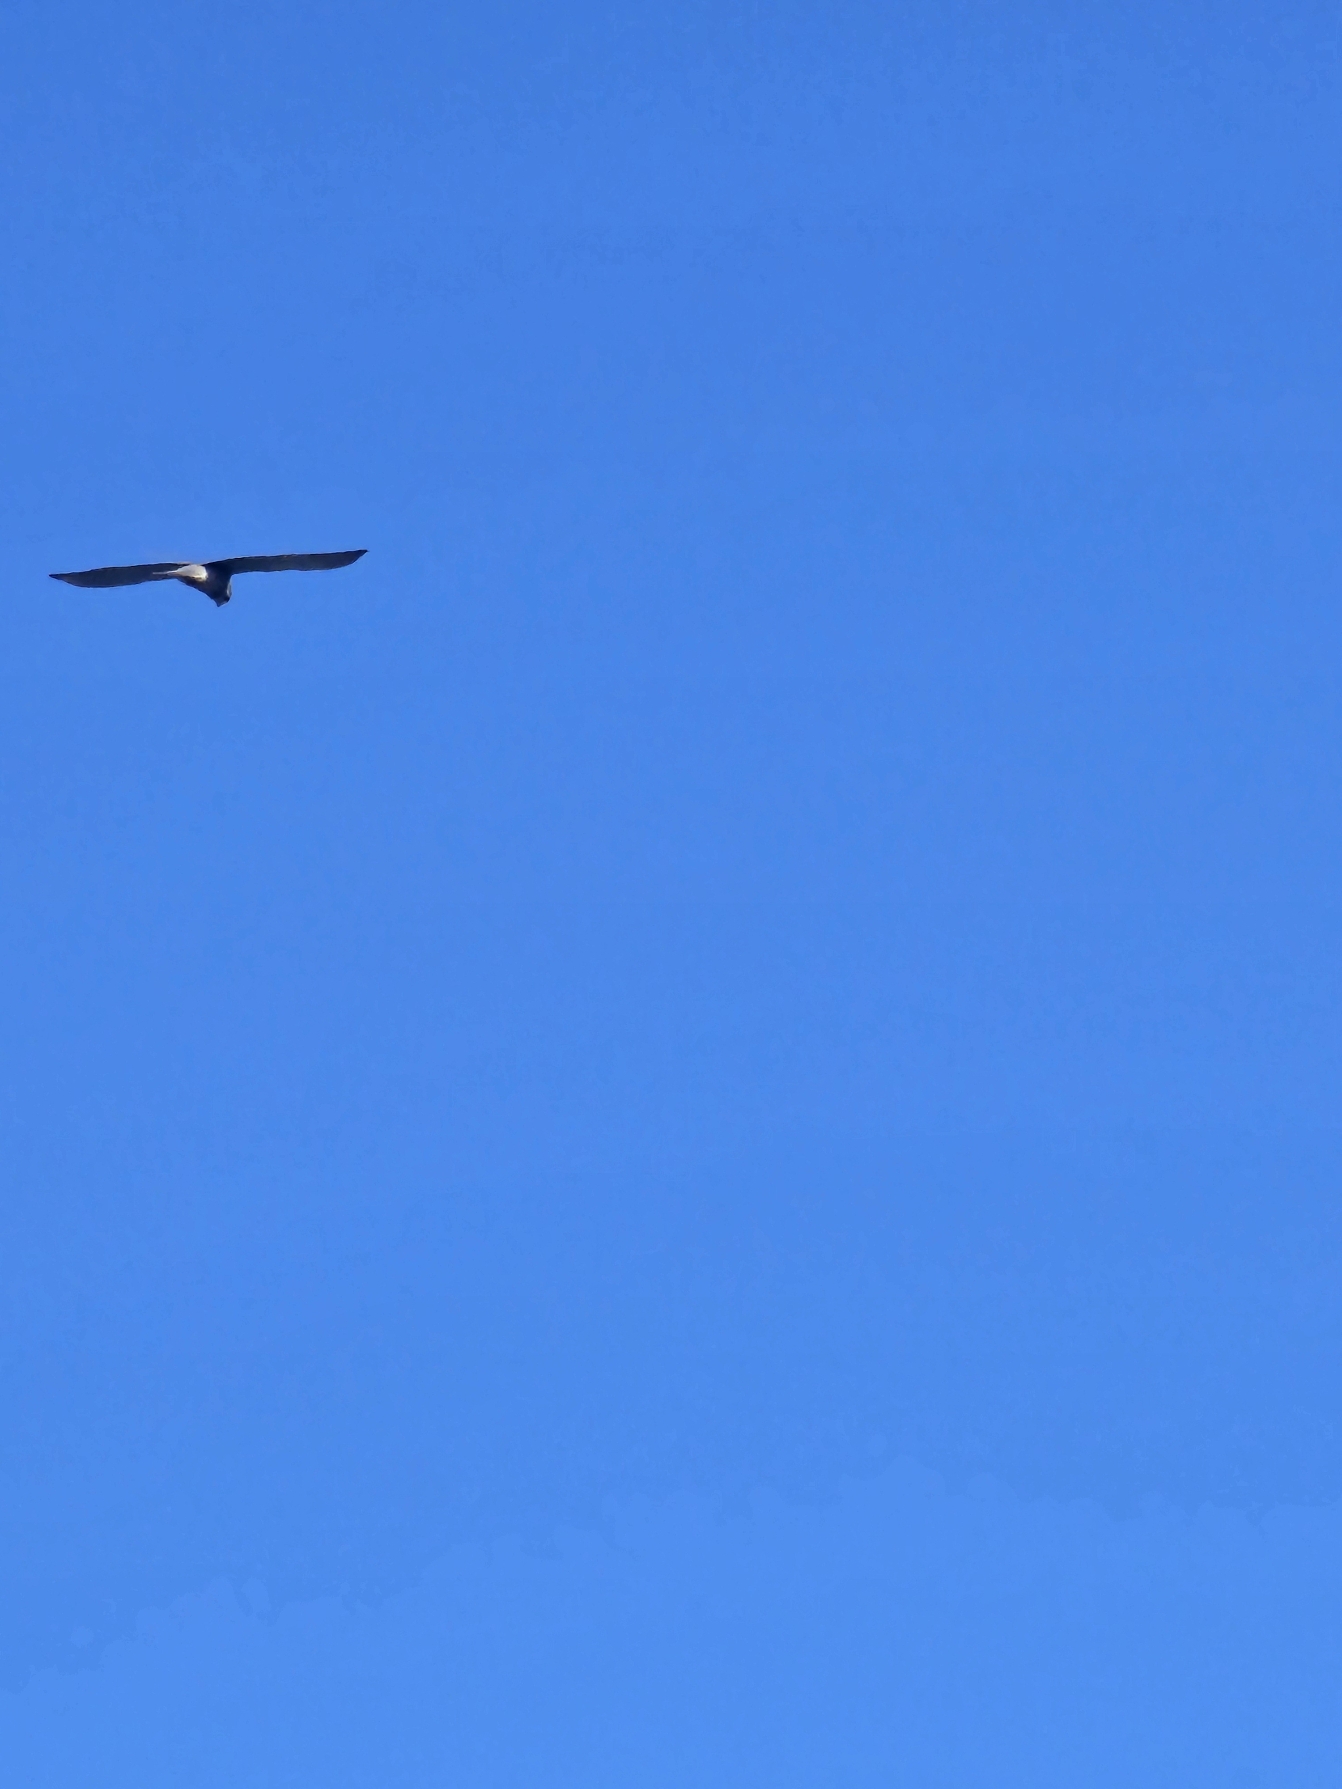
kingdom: Animalia
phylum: Chordata
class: Aves
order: Falconiformes
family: Falconidae
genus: Falco
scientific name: Falco tinnunculus
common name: Tårnfalk
